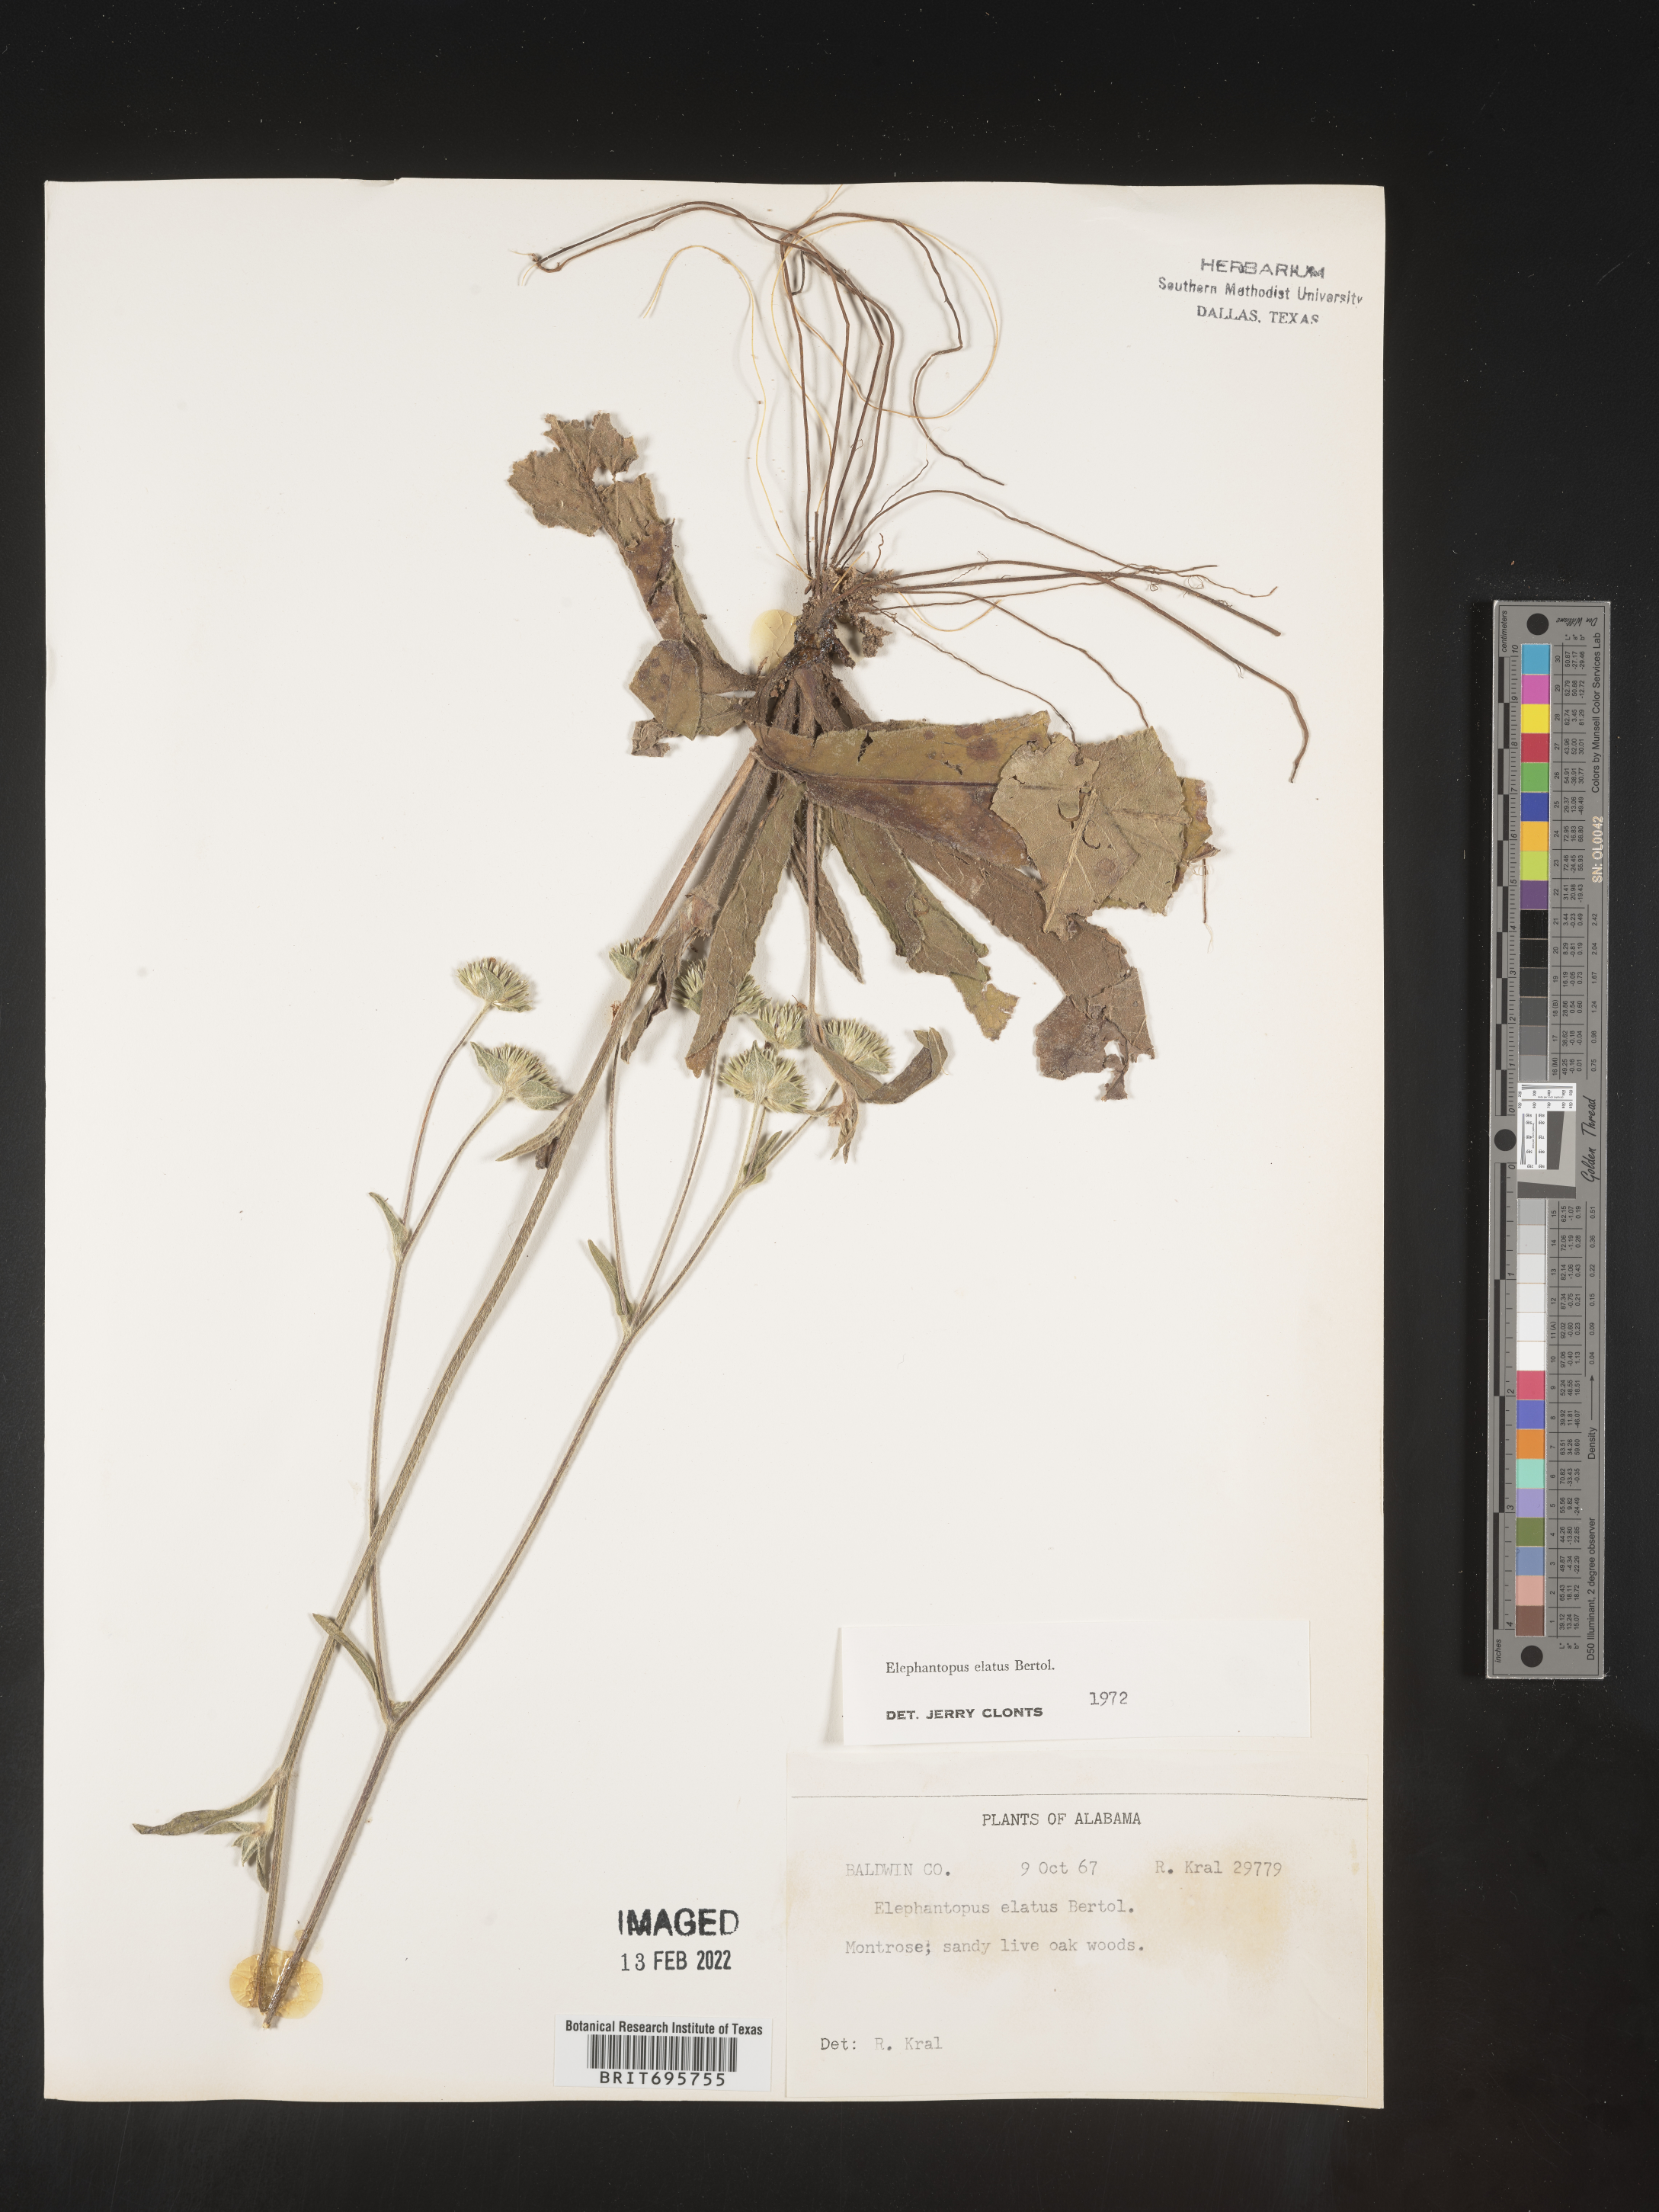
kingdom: Plantae
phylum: Tracheophyta
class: Magnoliopsida
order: Asterales
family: Asteraceae
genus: Elephantopus
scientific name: Elephantopus elatus
